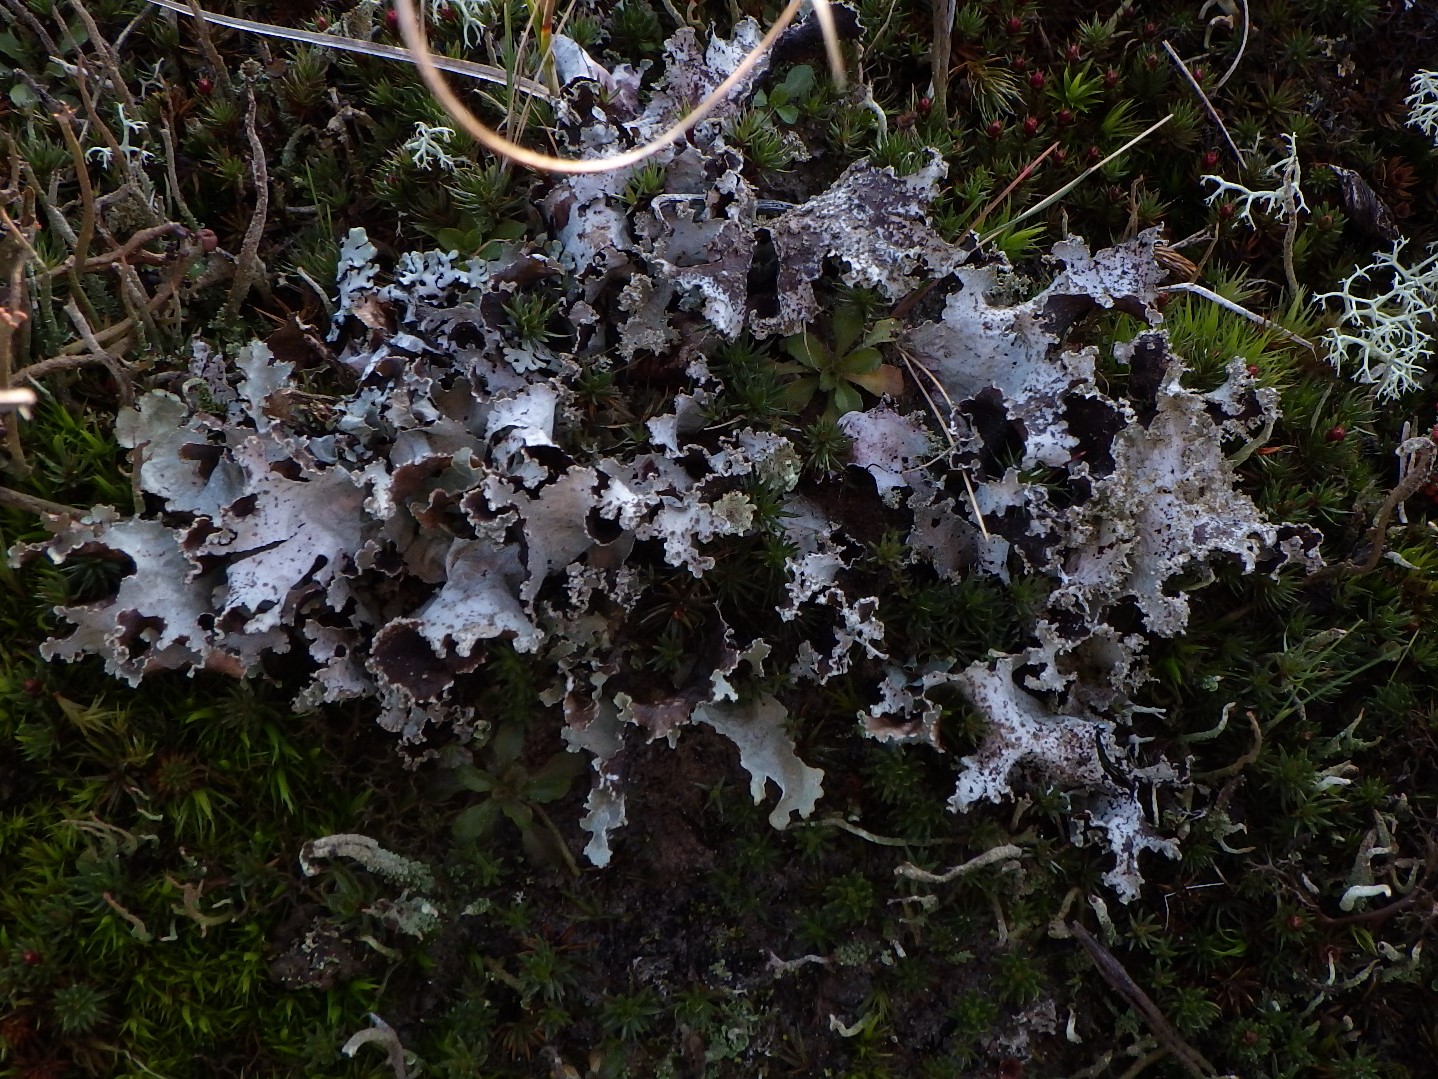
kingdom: Fungi
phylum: Ascomycota
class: Lecanoromycetes
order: Lecanorales
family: Parmeliaceae
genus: Platismatia
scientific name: Platismatia glauca
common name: blågrå papirlav
